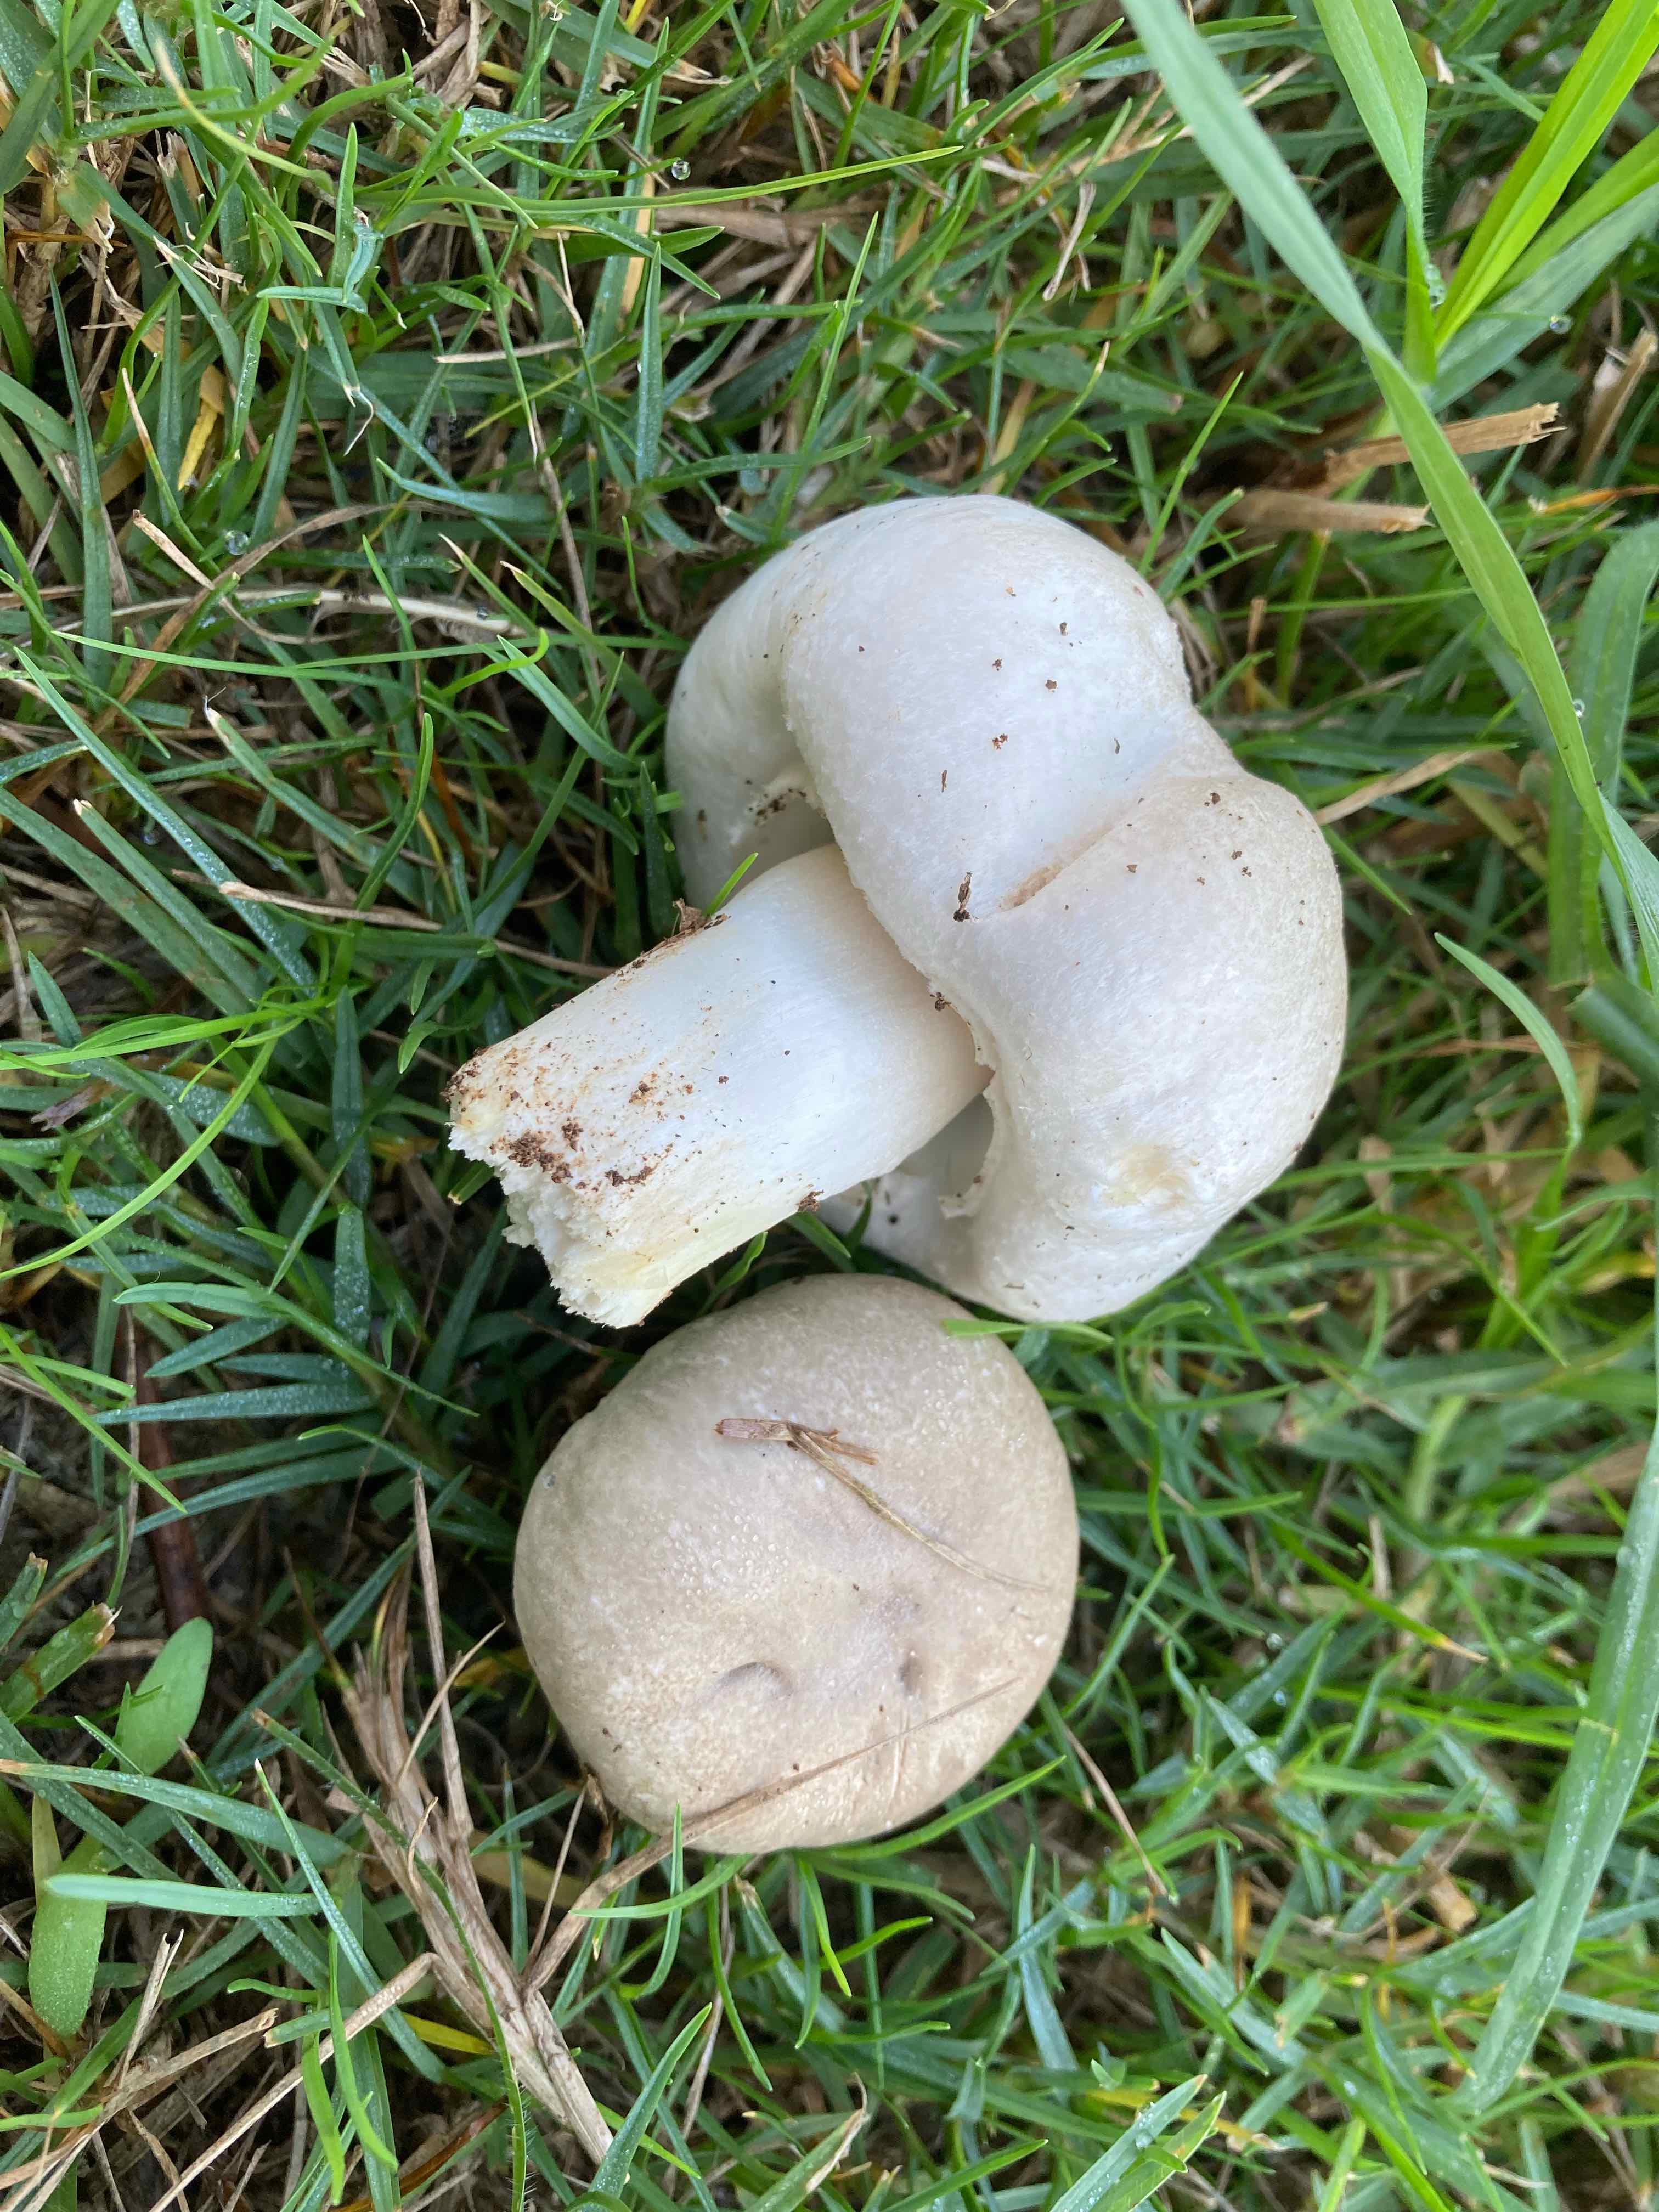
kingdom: Fungi
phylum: Basidiomycota
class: Agaricomycetes
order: Agaricales
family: Agaricaceae
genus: Agaricus
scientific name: Agaricus xanthodermus
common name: karbol-champignon
